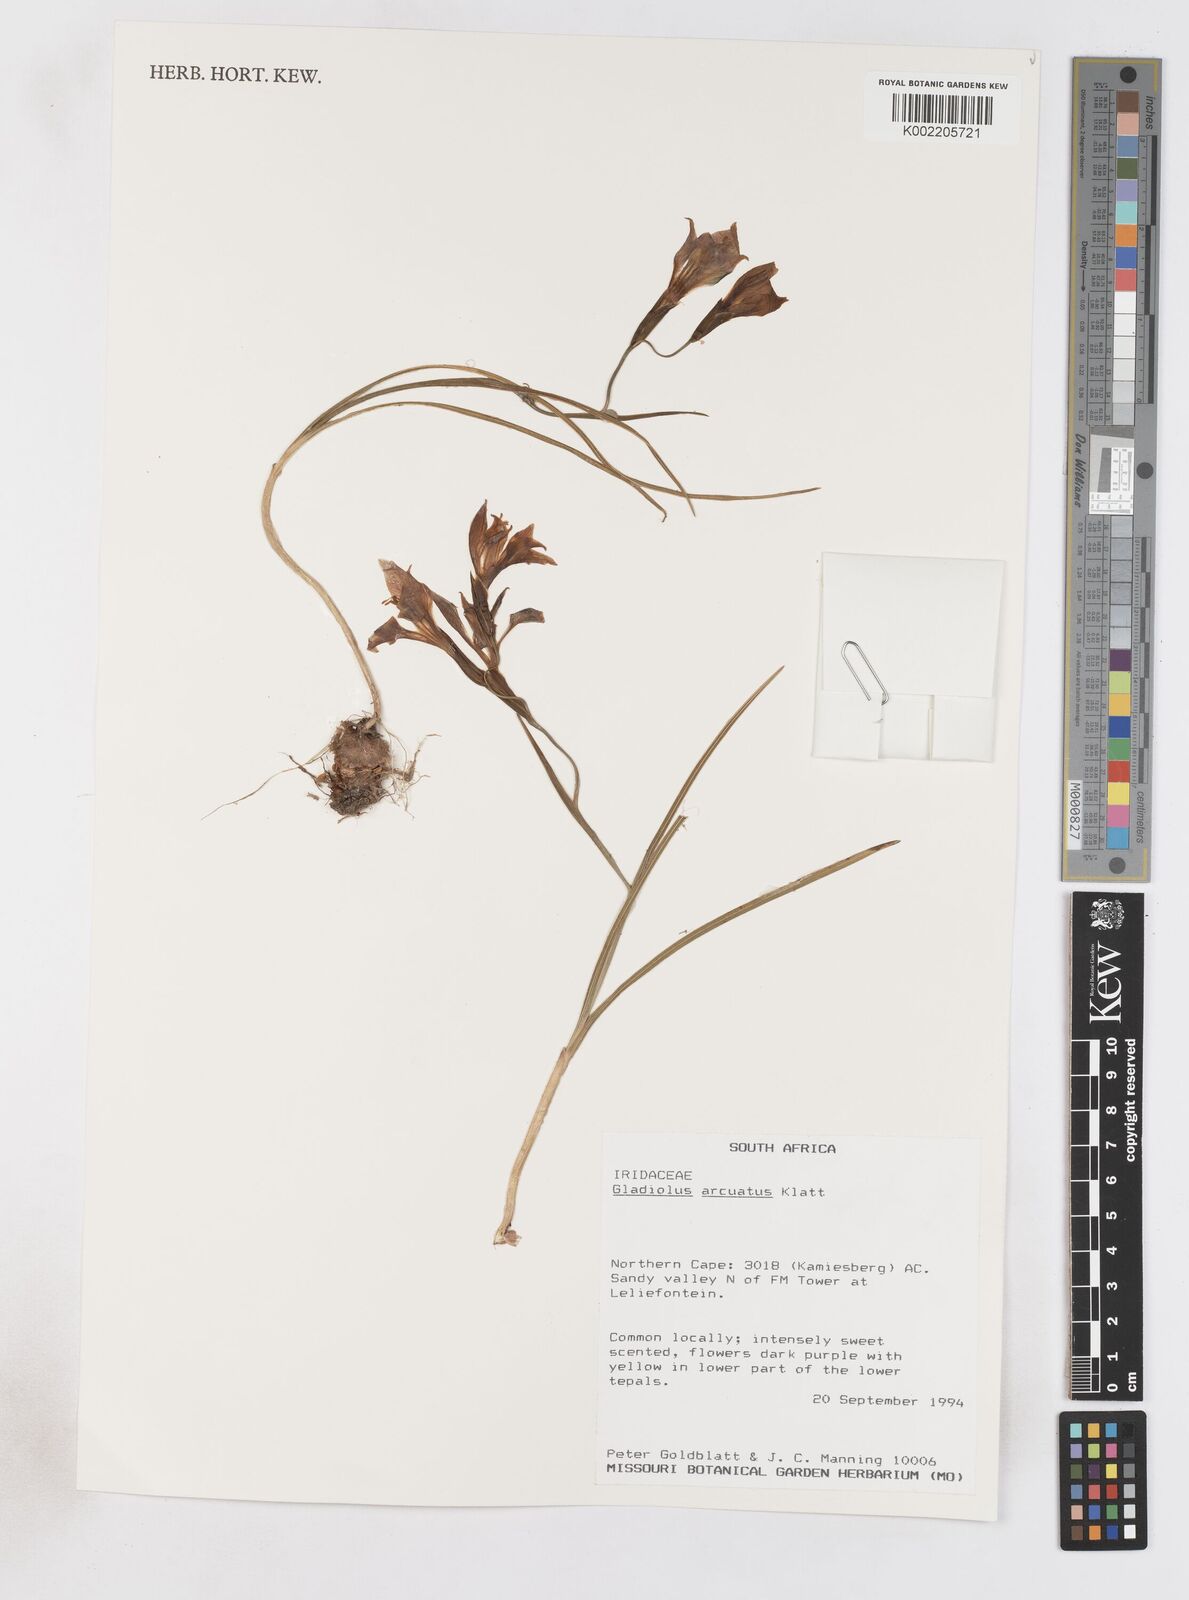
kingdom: Plantae
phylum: Tracheophyta
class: Liliopsida
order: Asparagales
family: Iridaceae
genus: Gladiolus
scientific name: Gladiolus arcuatus
